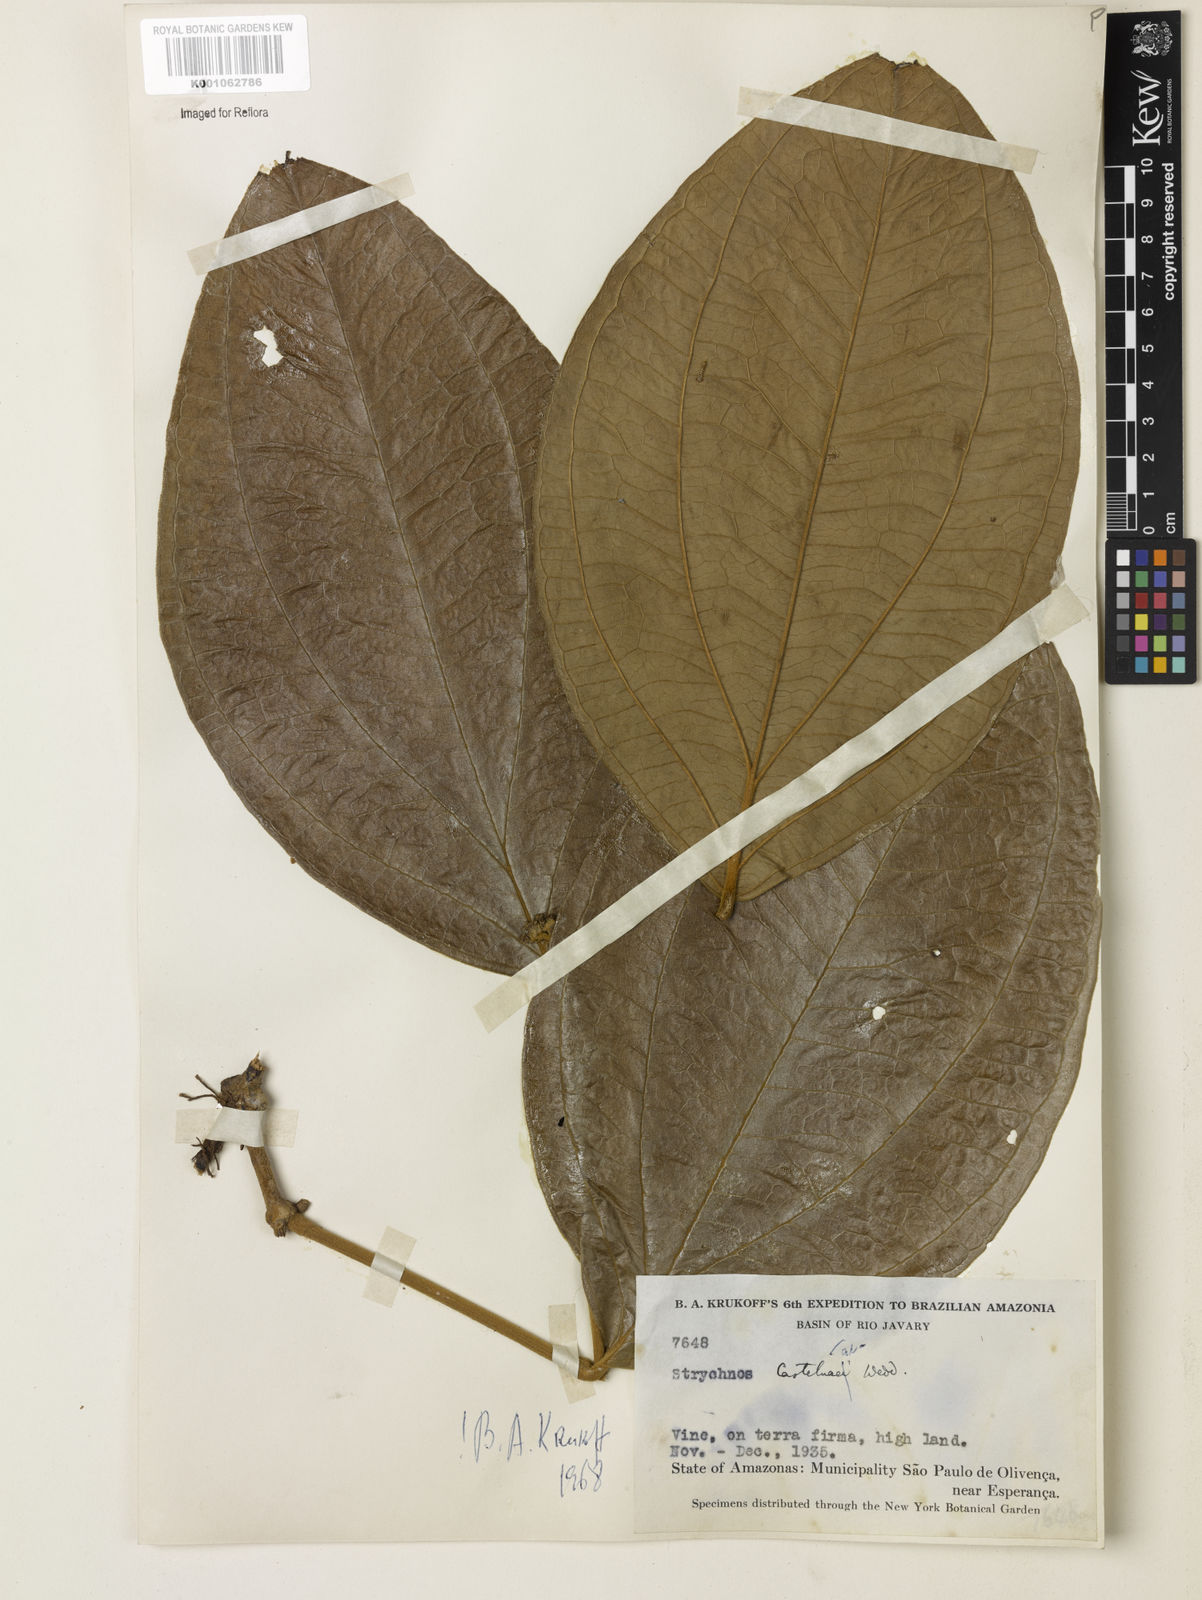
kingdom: Plantae
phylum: Tracheophyta
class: Magnoliopsida
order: Gentianales
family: Loganiaceae
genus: Strychnos
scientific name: Strychnos
